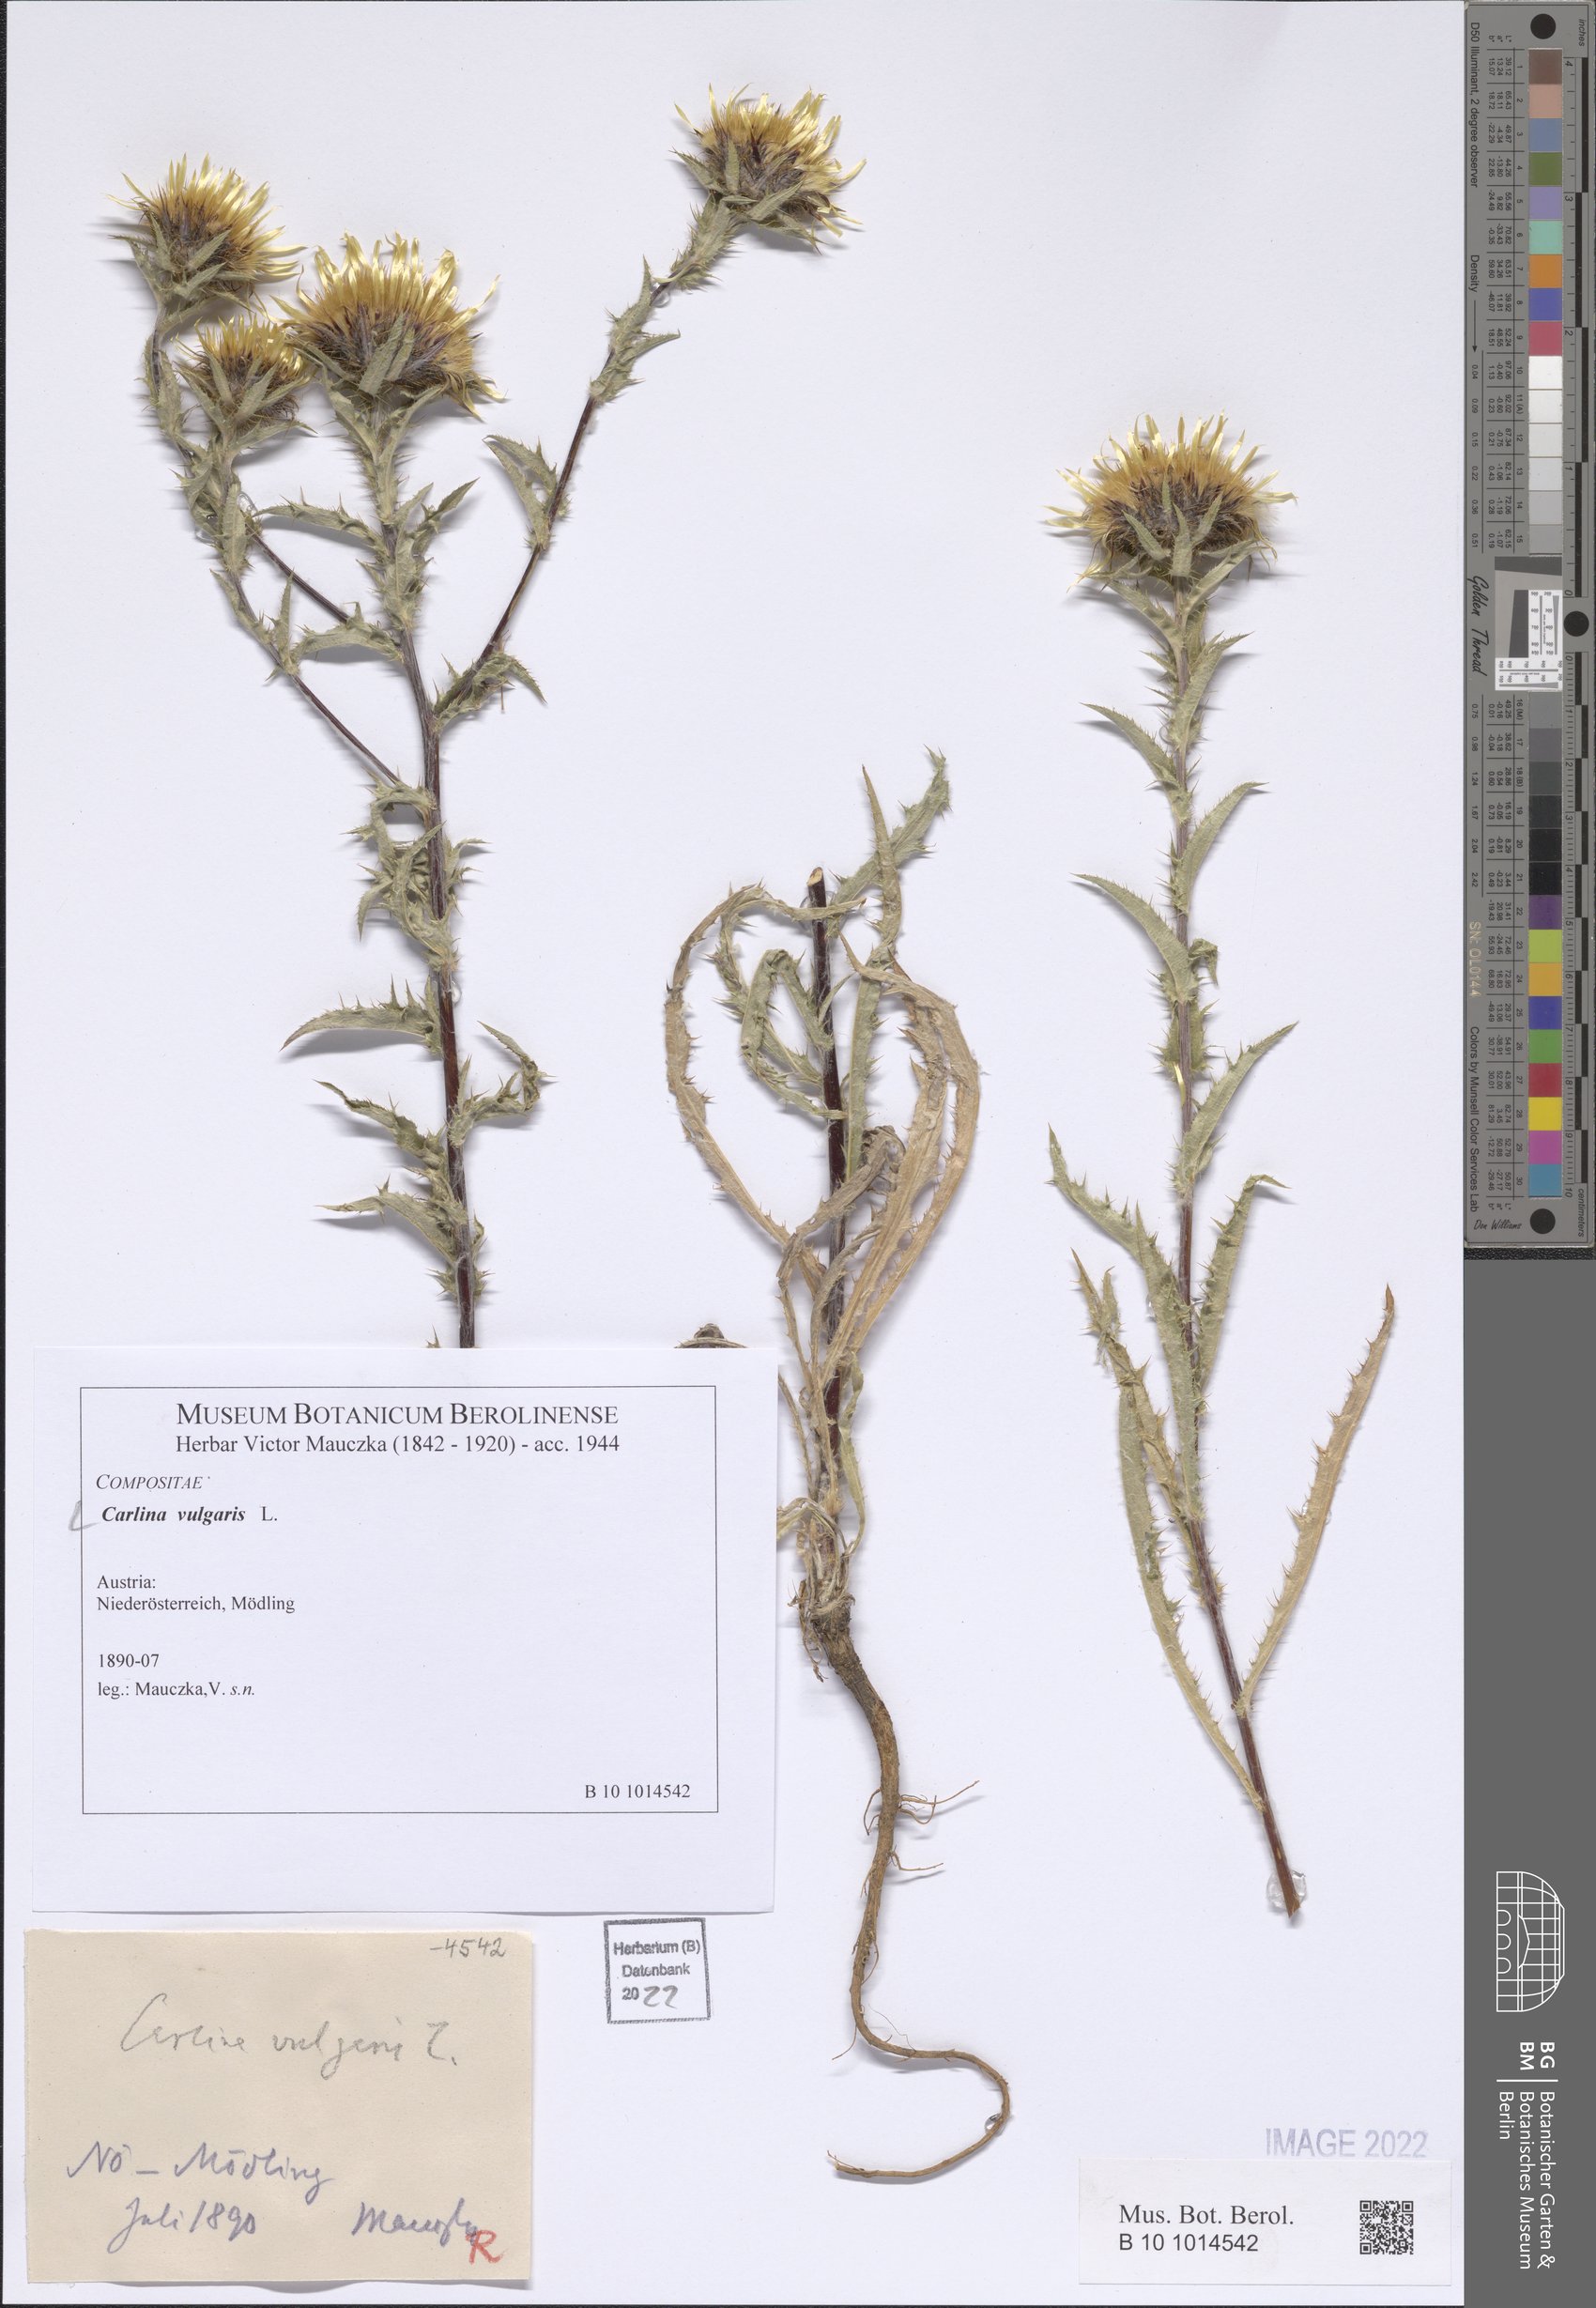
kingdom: Plantae
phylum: Tracheophyta
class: Magnoliopsida
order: Asterales
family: Asteraceae
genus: Carlina
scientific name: Carlina vulgaris
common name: Carline thistle
